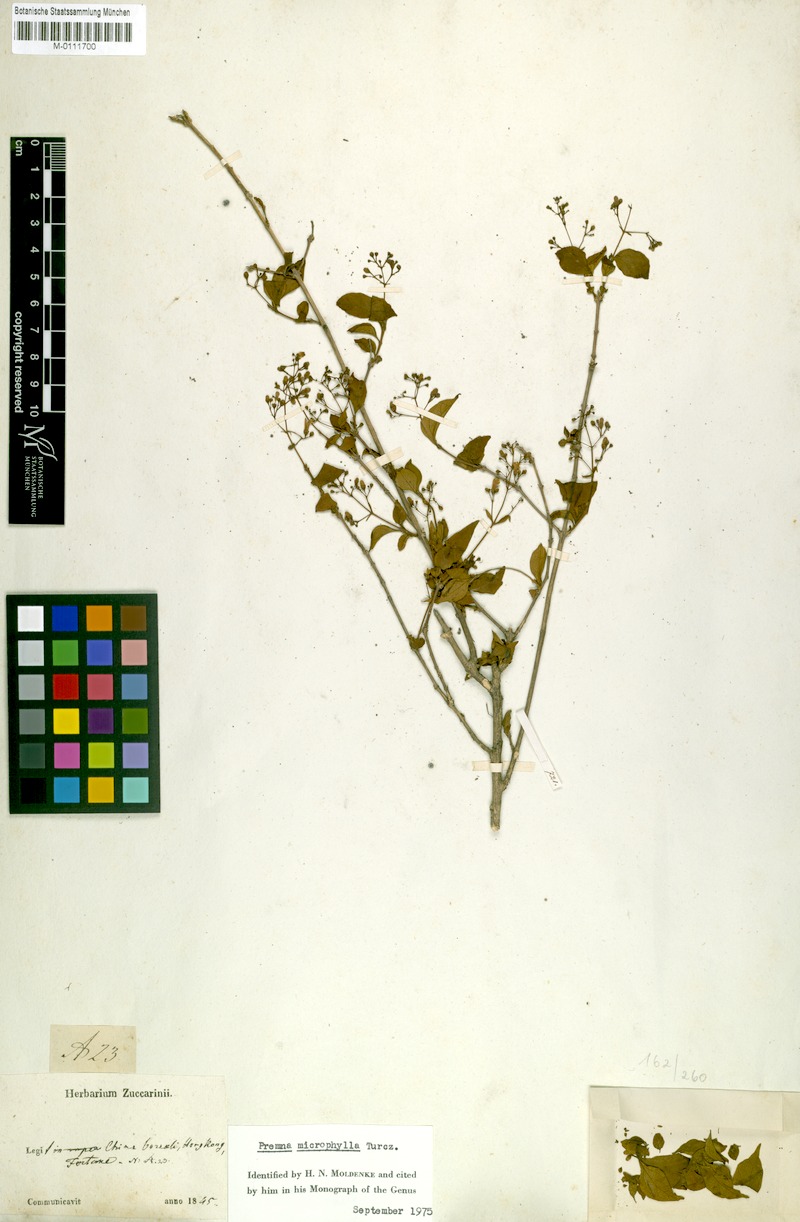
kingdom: Plantae
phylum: Tracheophyta
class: Magnoliopsida
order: Lamiales
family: Lamiaceae
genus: Premna
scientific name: Premna microphylla
